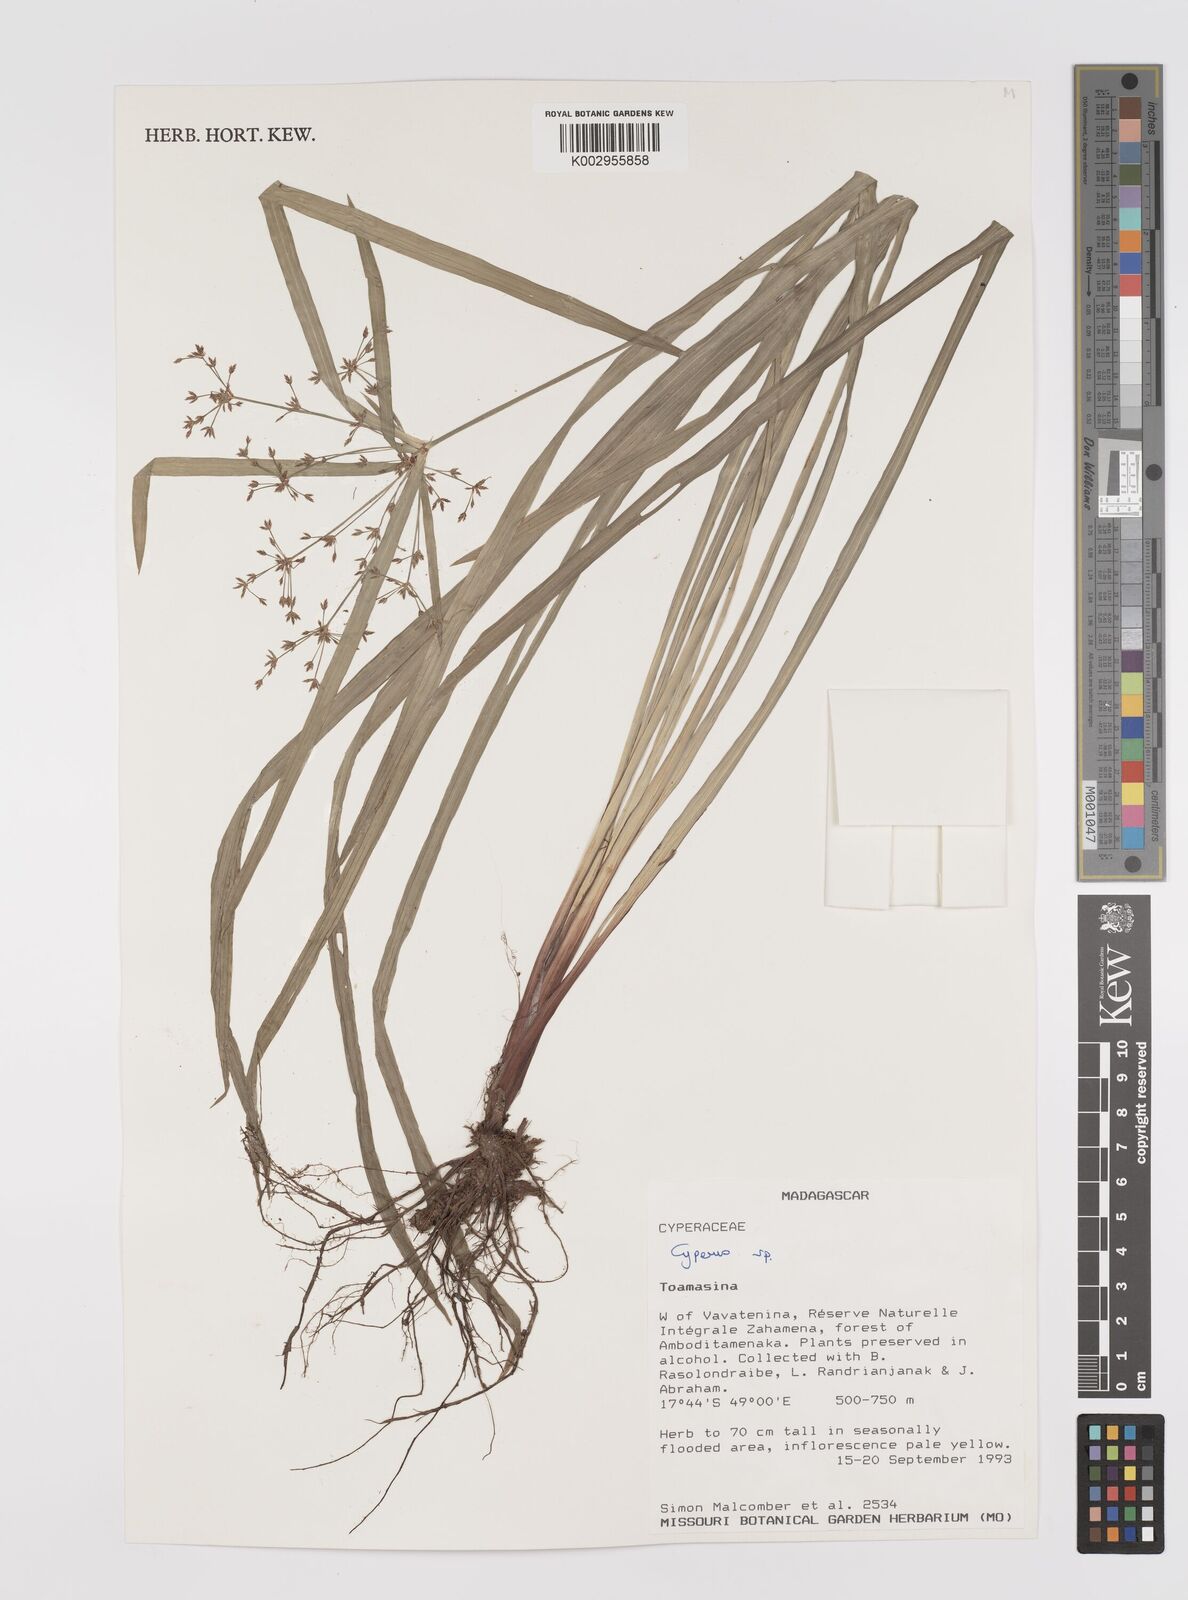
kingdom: Plantae
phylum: Tracheophyta
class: Liliopsida
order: Poales
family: Cyperaceae
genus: Cyperus
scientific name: Cyperus
